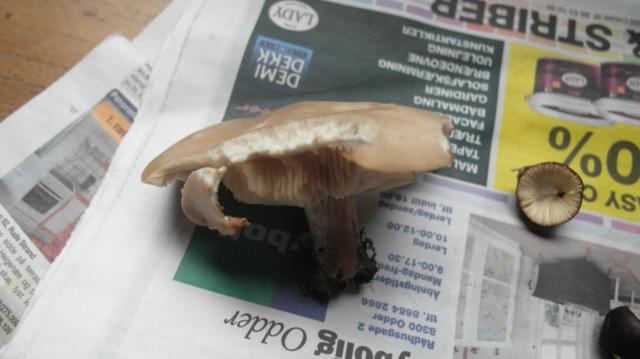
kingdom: Fungi
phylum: Basidiomycota
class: Agaricomycetes
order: Agaricales
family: Tricholomataceae
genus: Lepista
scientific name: Lepista personata
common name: bleg hekseringshat
